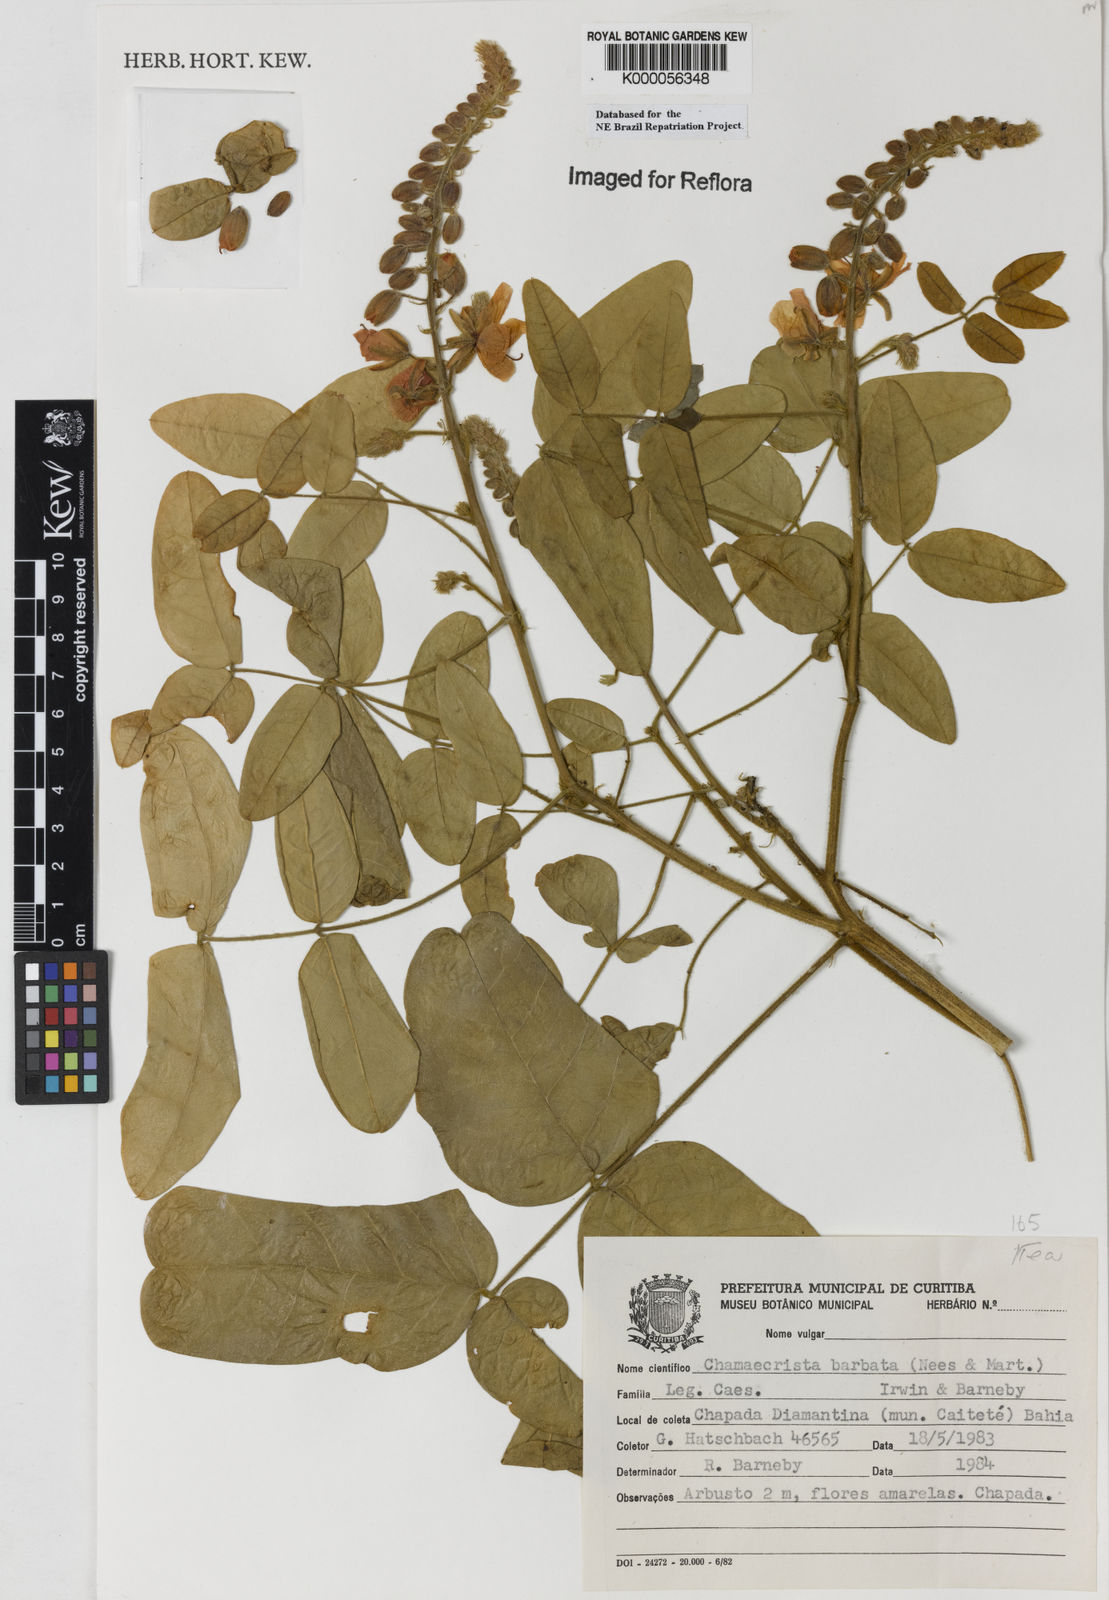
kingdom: Plantae
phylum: Tracheophyta
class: Magnoliopsida
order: Fabales
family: Fabaceae
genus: Chamaecrista
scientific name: Chamaecrista barbata
